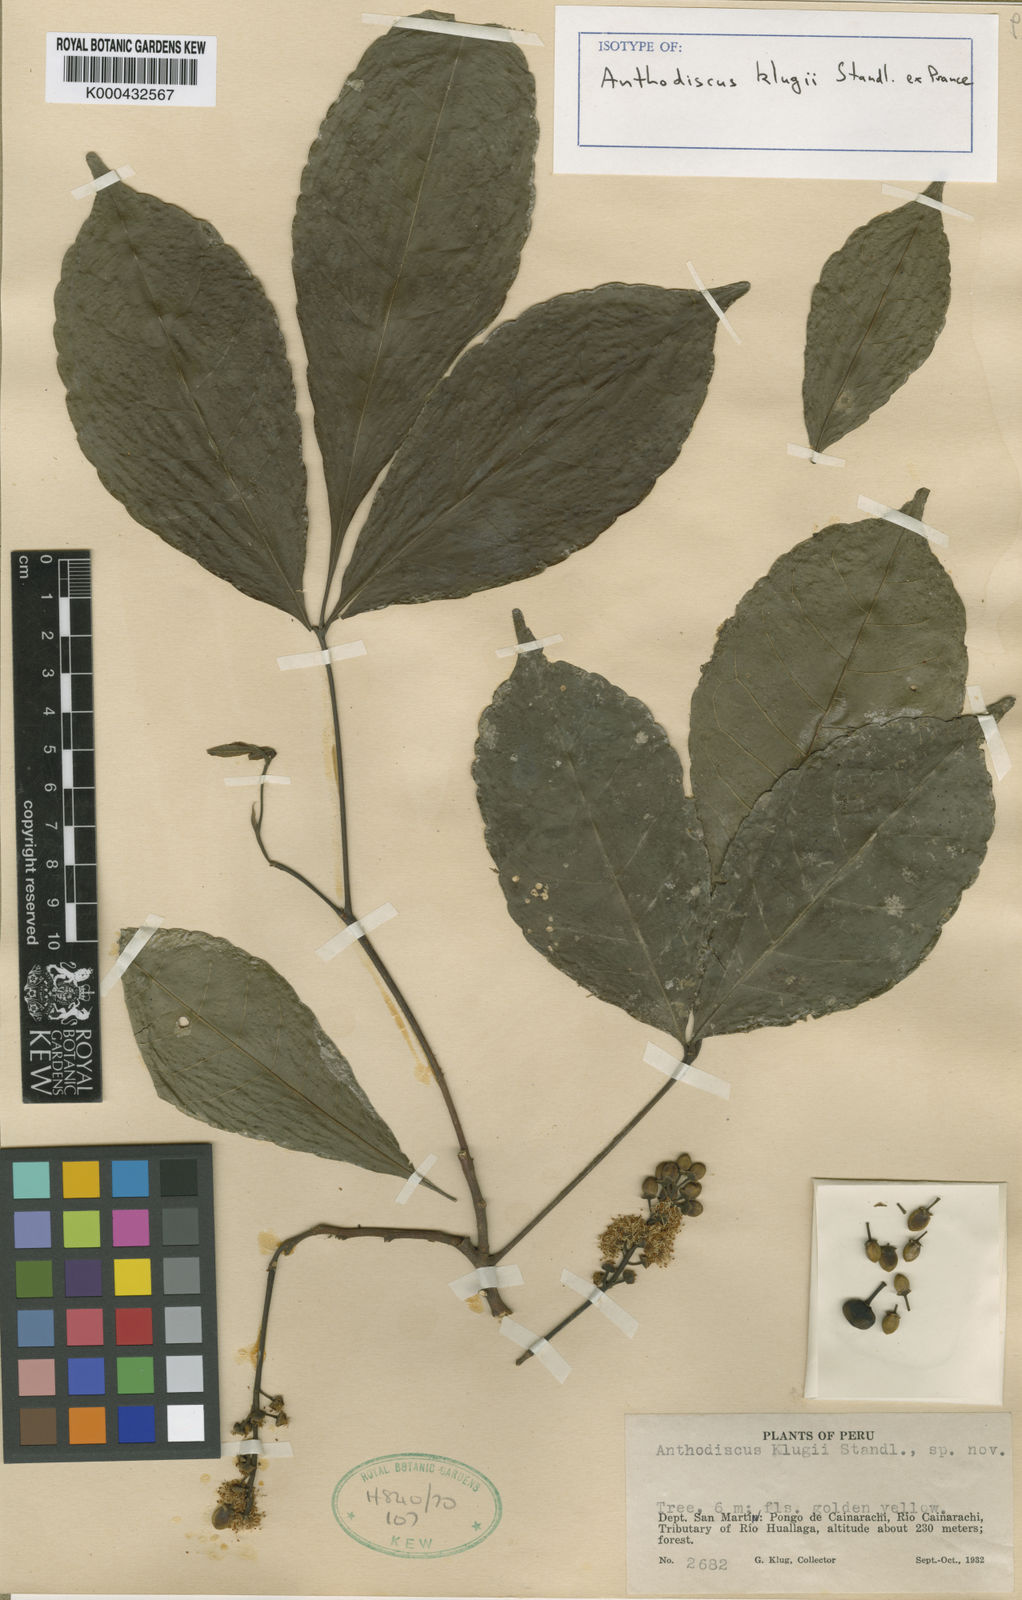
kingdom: Plantae
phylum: Tracheophyta
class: Magnoliopsida
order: Malpighiales
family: Caryocaraceae
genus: Anthodiscus
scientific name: Anthodiscus klugii
